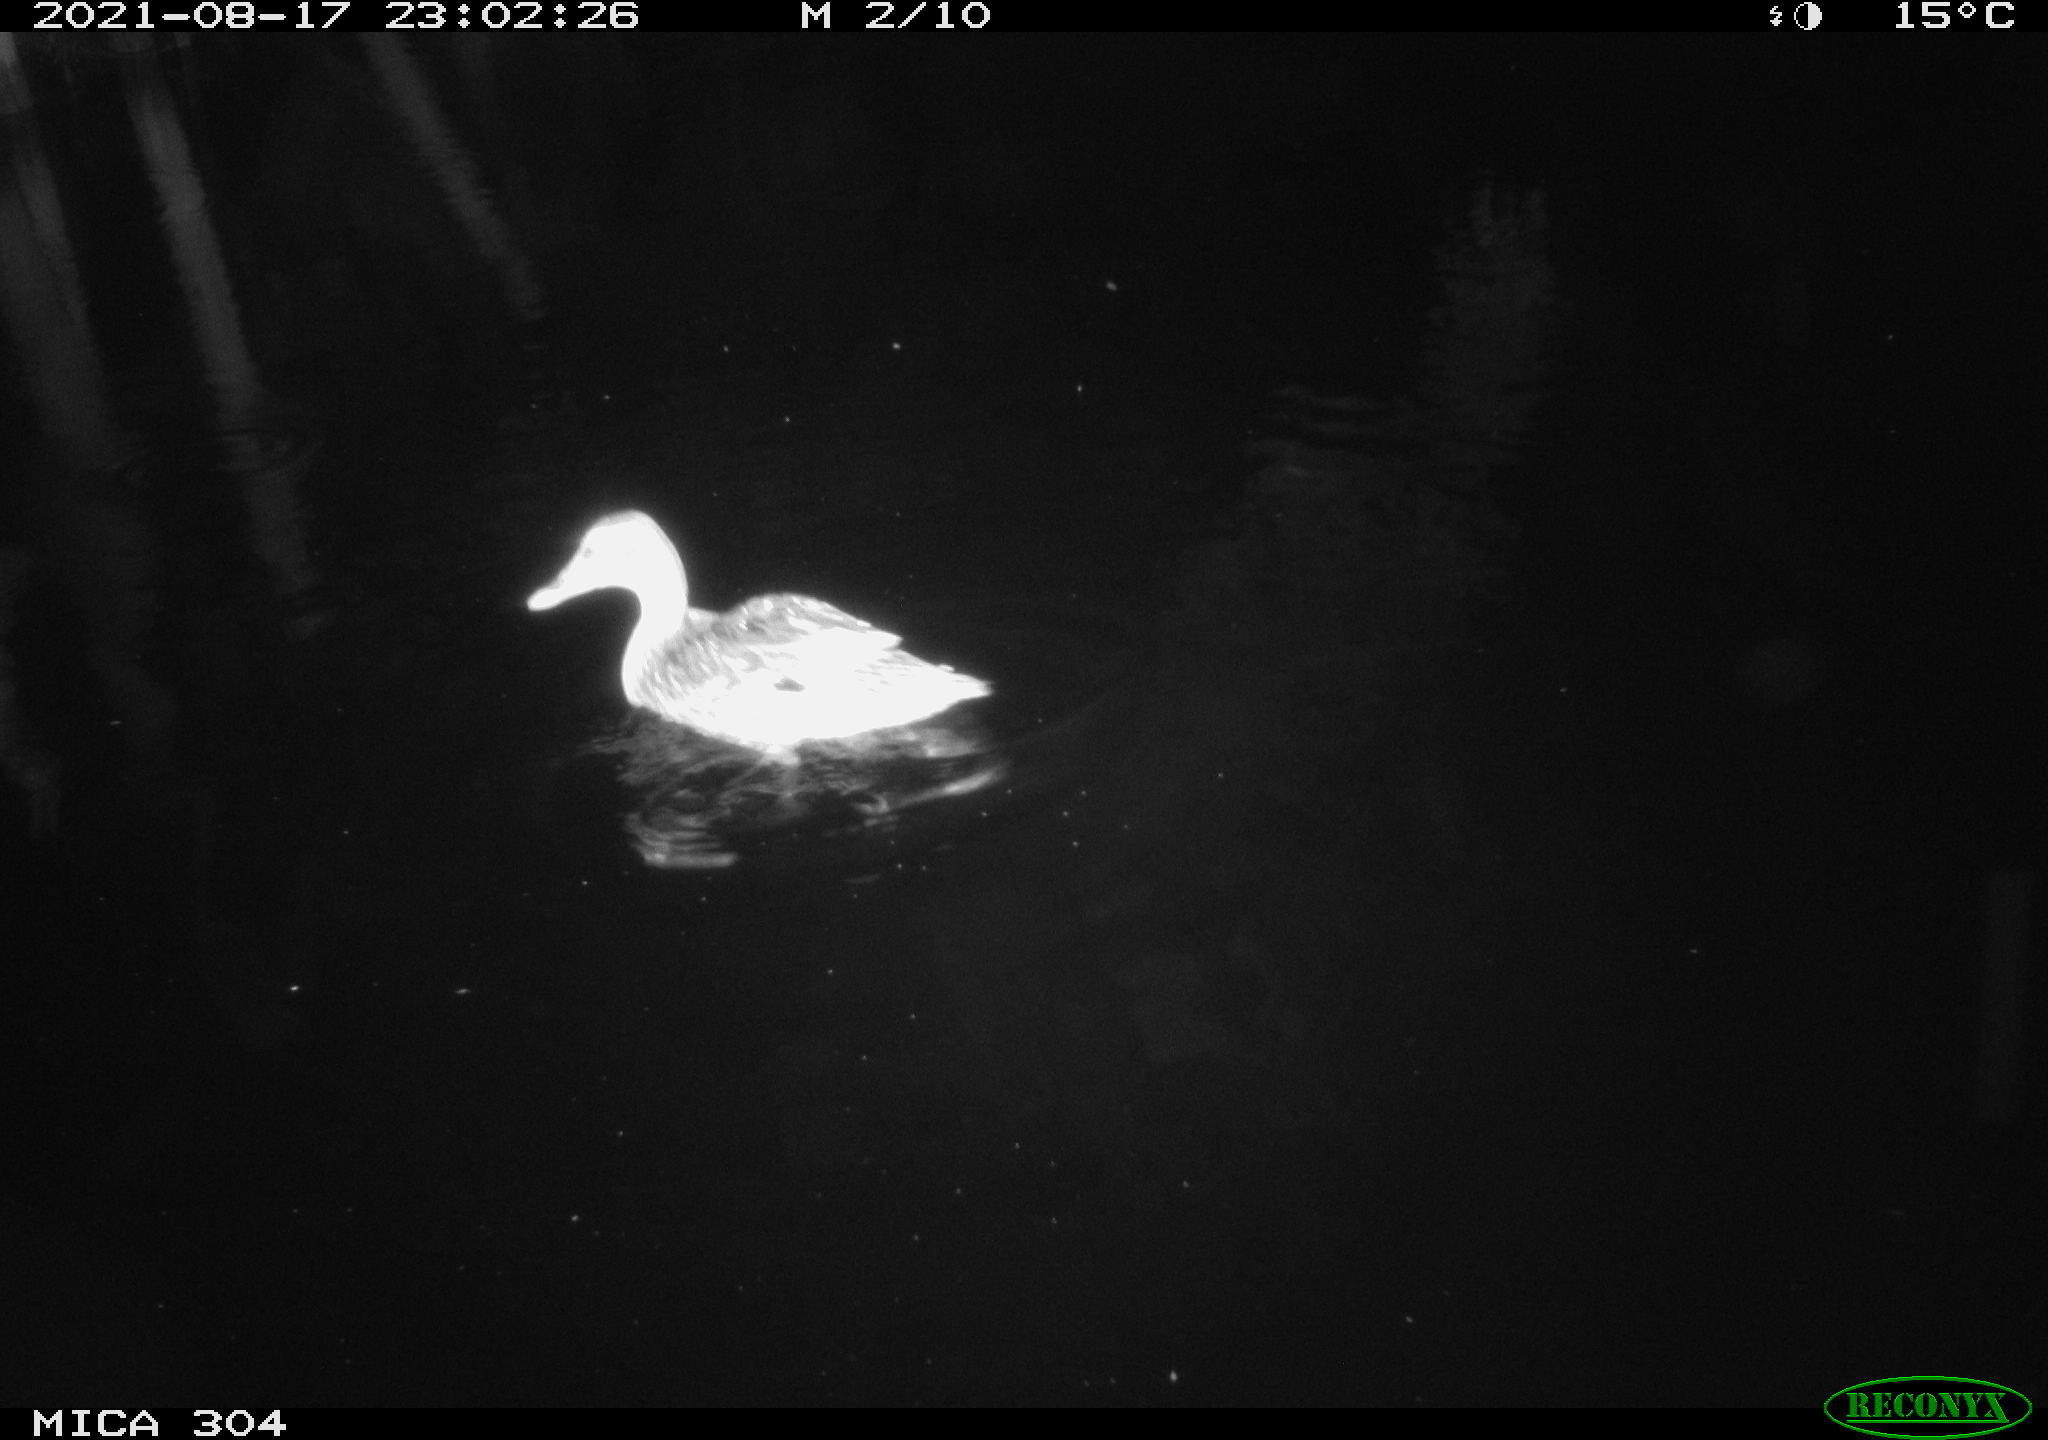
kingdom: Animalia
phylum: Chordata
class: Aves
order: Anseriformes
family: Anatidae
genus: Mareca
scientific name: Mareca strepera
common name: Gadwall
